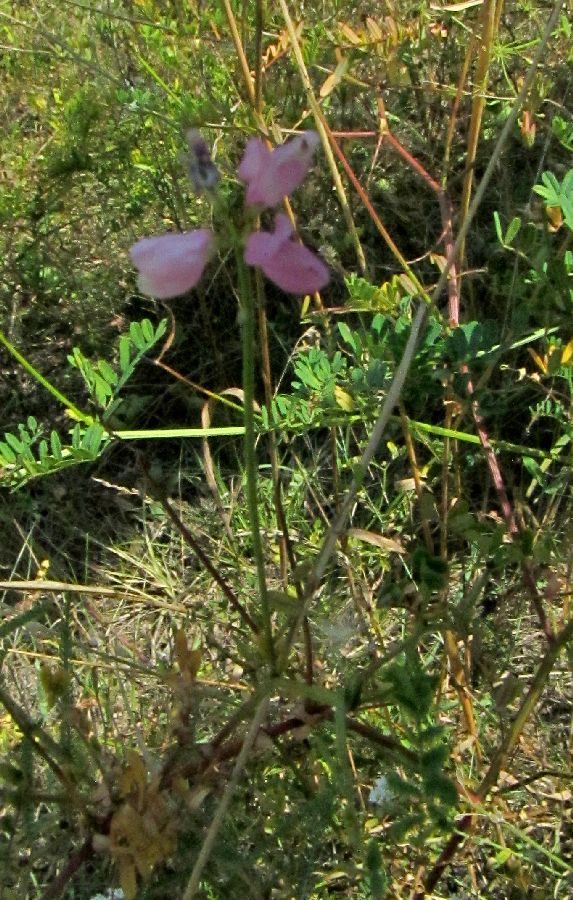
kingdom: Plantae
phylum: Tracheophyta
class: Magnoliopsida
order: Fabales
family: Fabaceae
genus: Coronilla
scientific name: Coronilla varia
